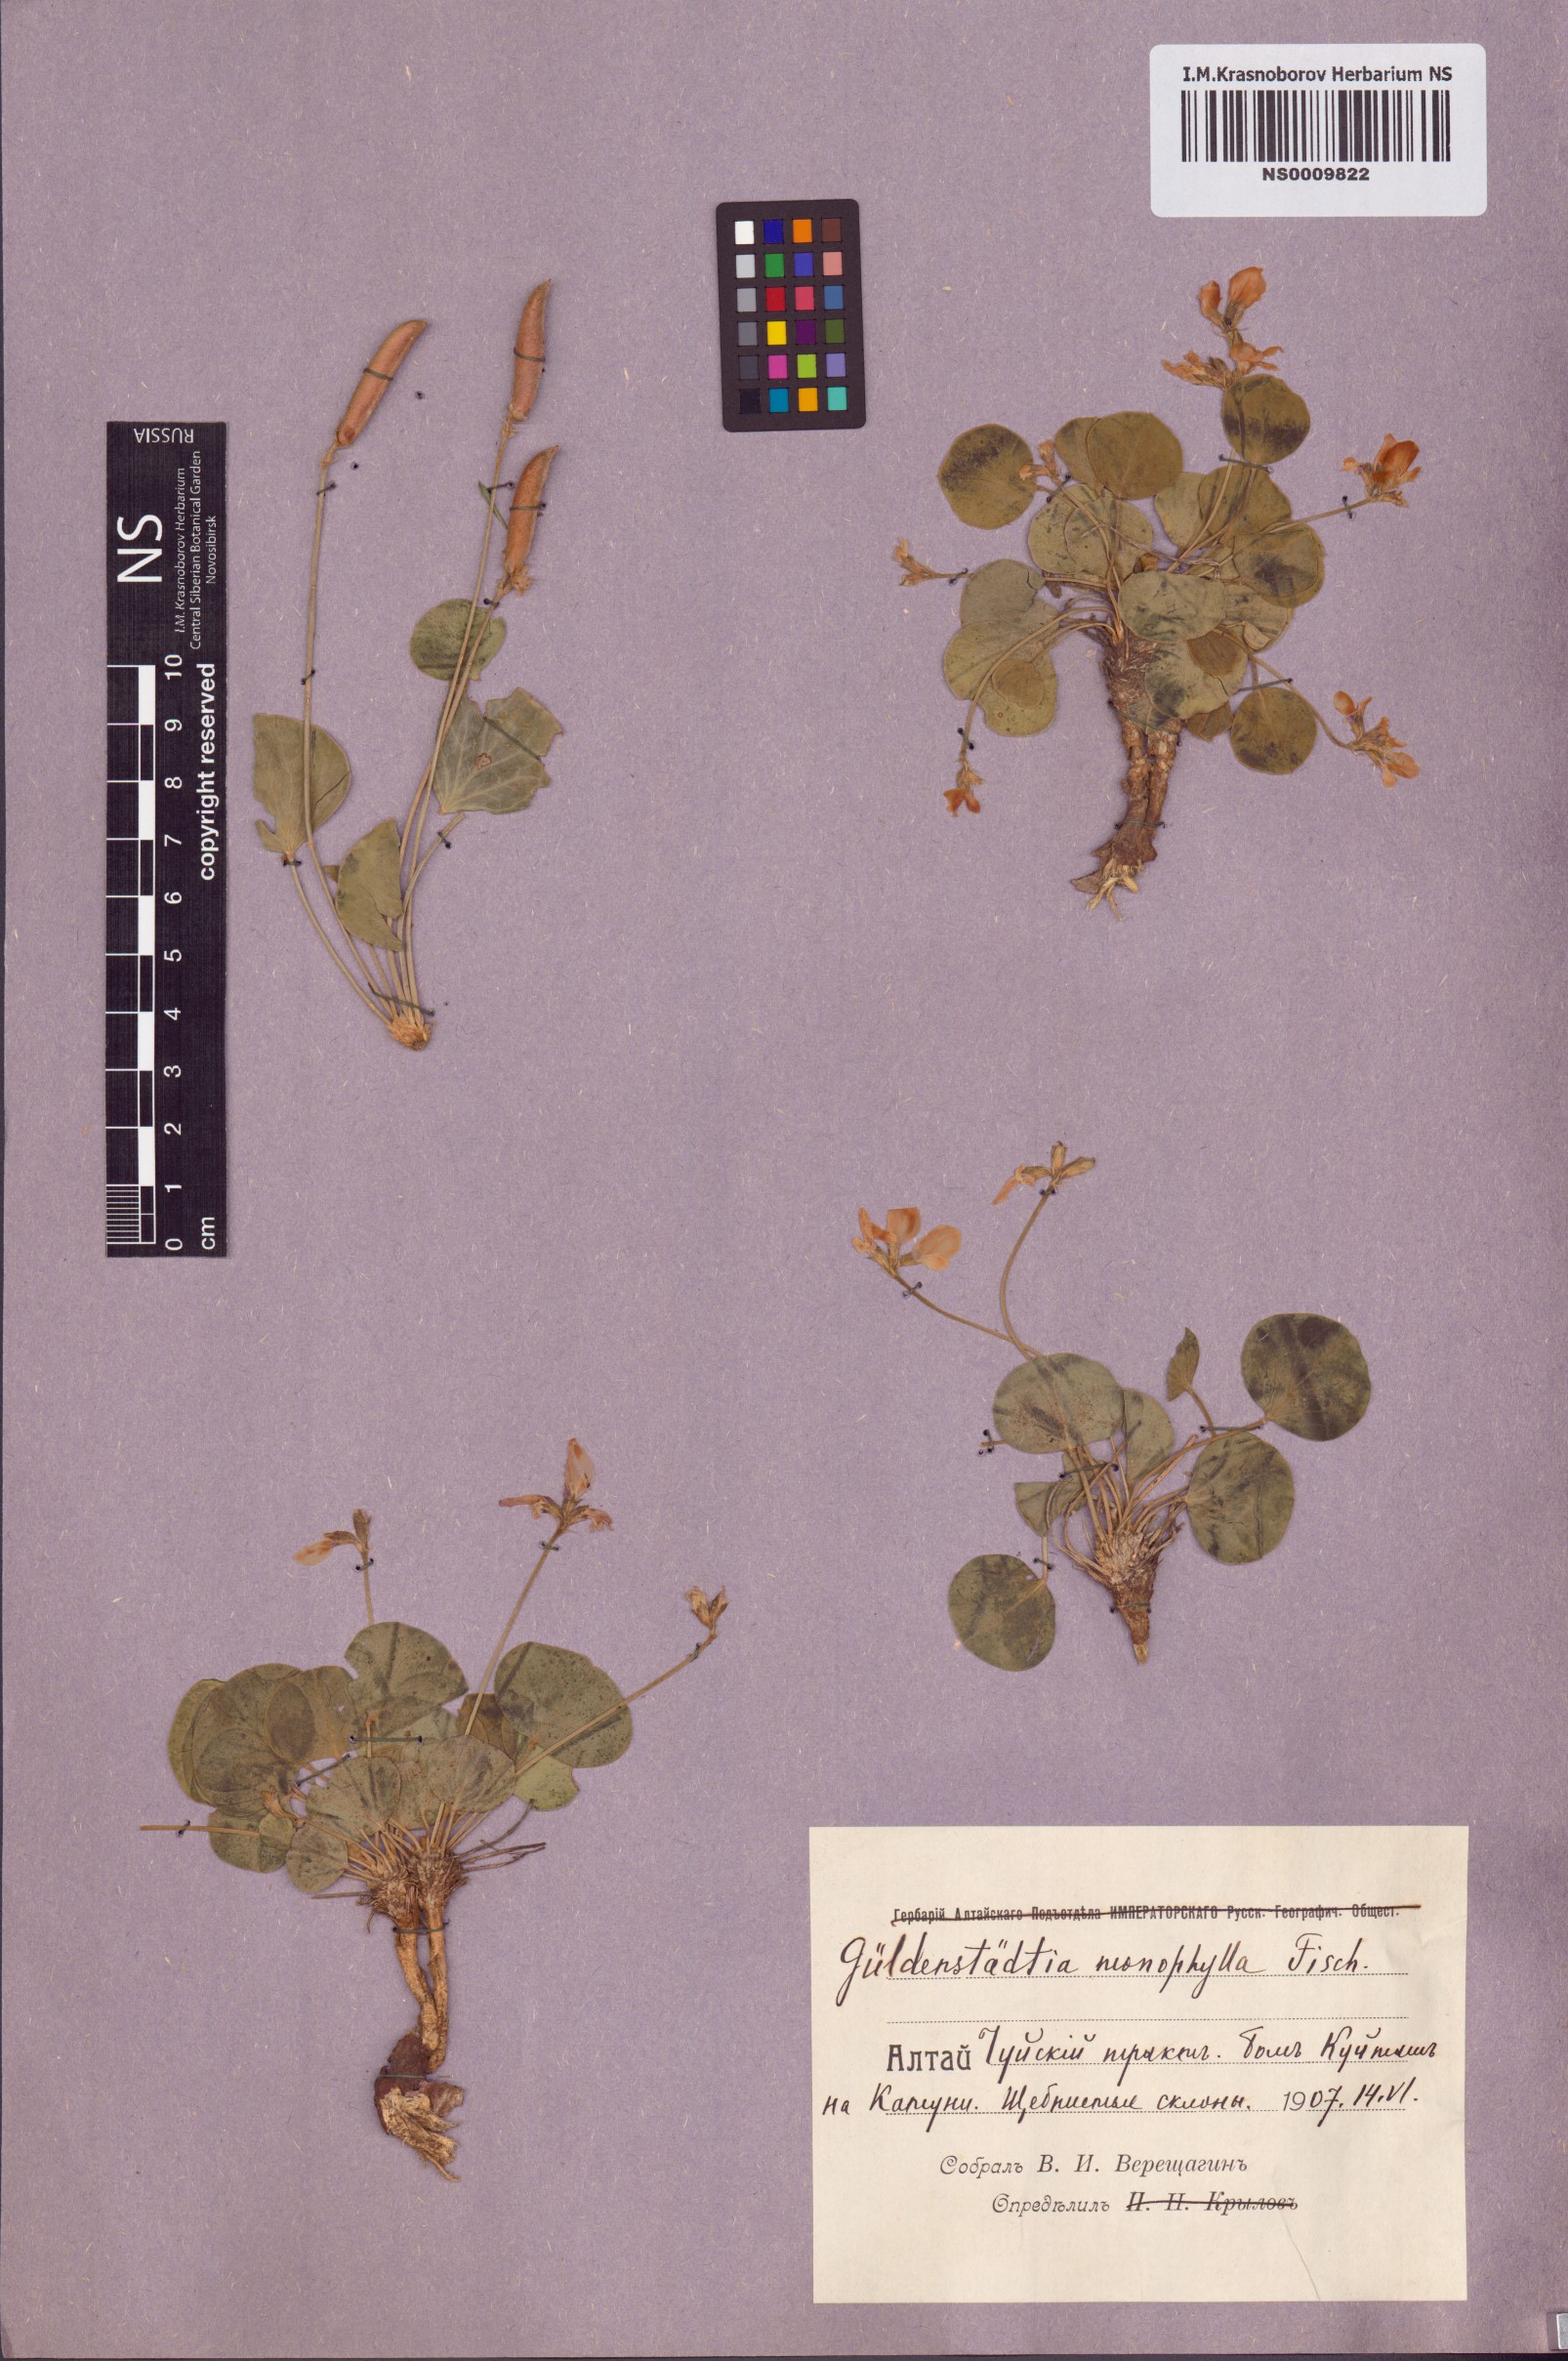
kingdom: Plantae
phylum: Tracheophyta
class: Magnoliopsida
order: Fabales
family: Fabaceae
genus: Gueldenstaedtia
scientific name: Gueldenstaedtia monophylla
